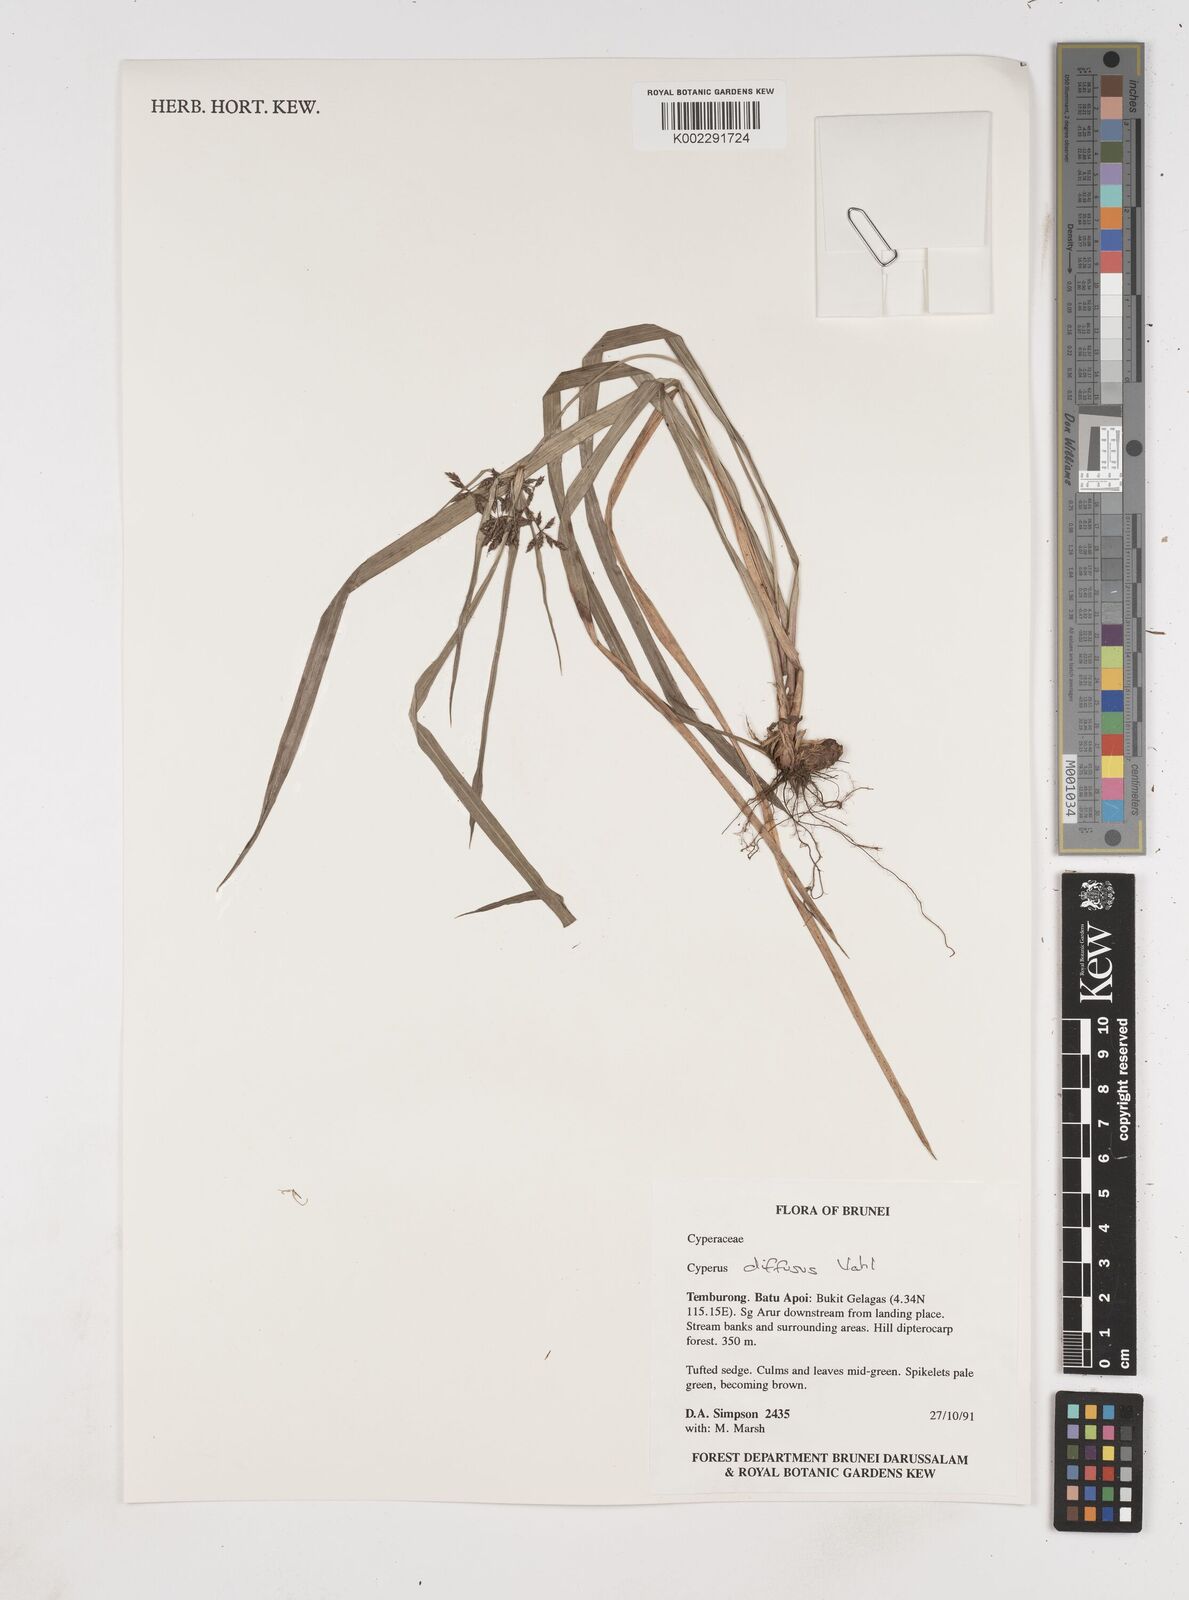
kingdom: Plantae
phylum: Tracheophyta
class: Liliopsida
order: Poales
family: Cyperaceae
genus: Cyperus
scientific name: Cyperus diffusus
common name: Dwarf umbrella grass
